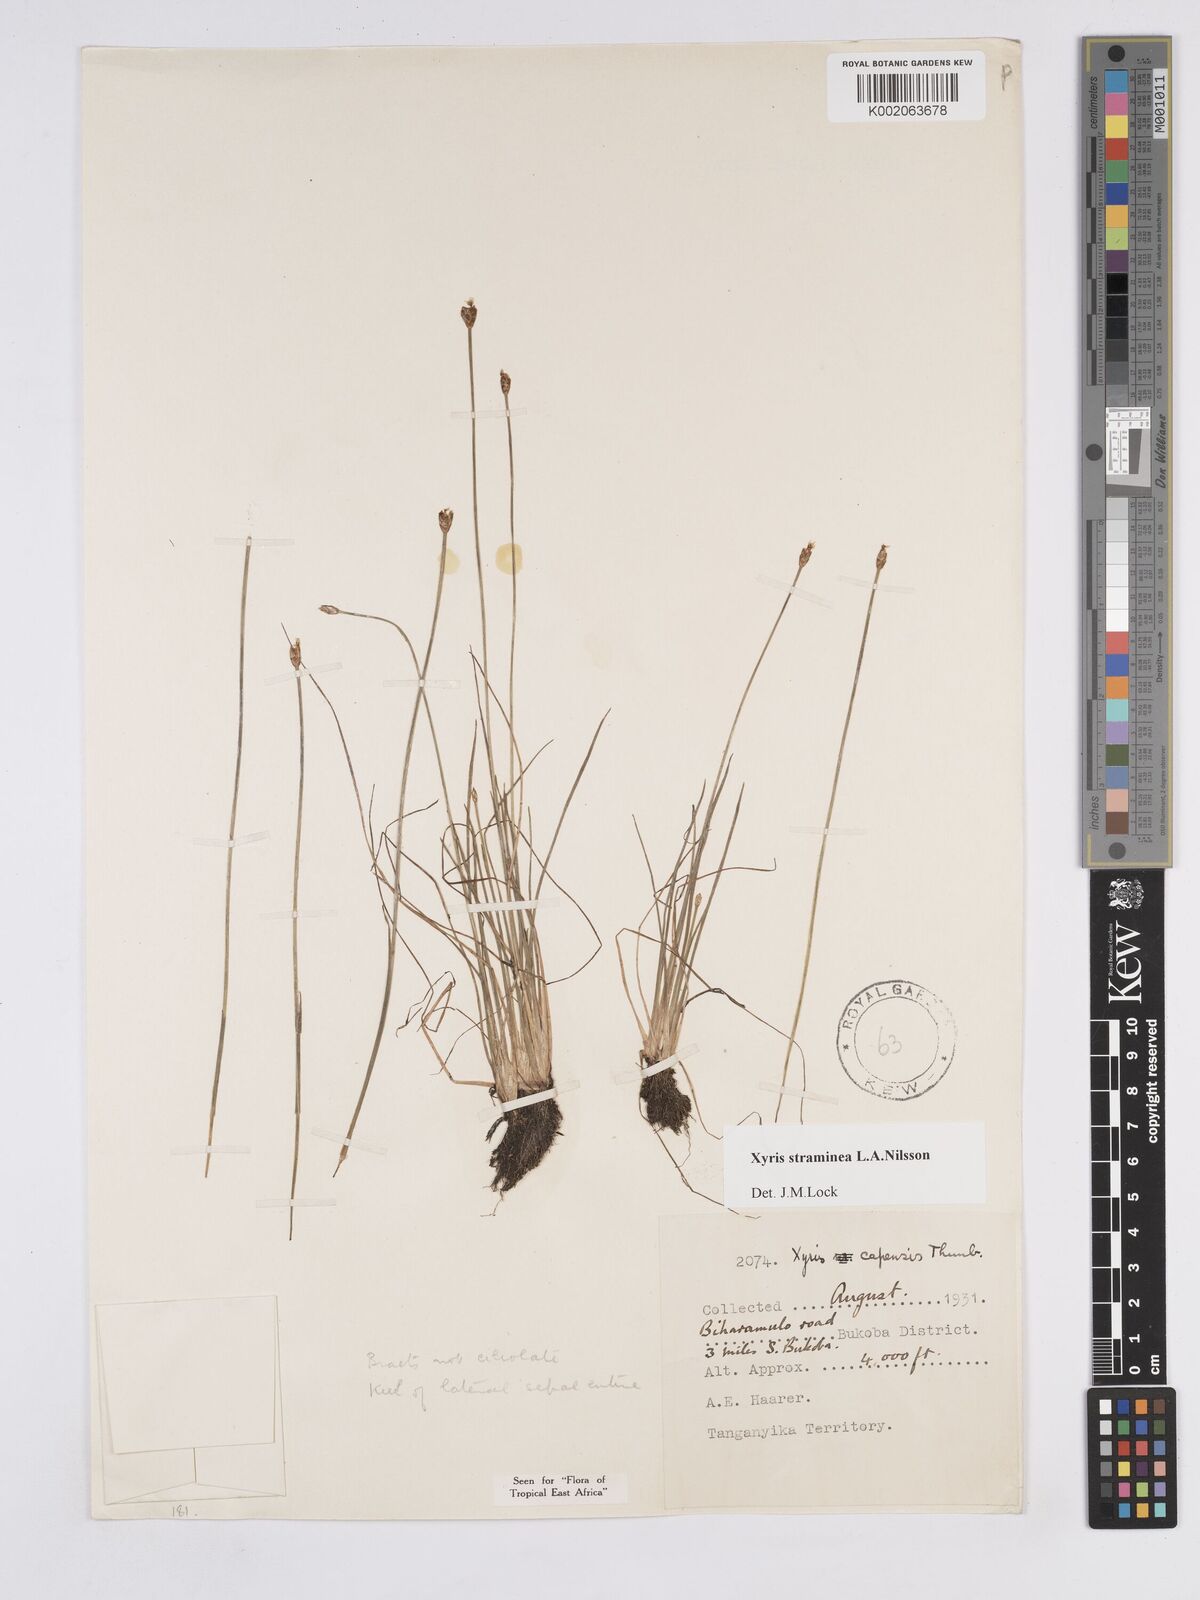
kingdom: Plantae
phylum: Tracheophyta
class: Liliopsida
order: Poales
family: Xyridaceae
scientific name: Xyridaceae
